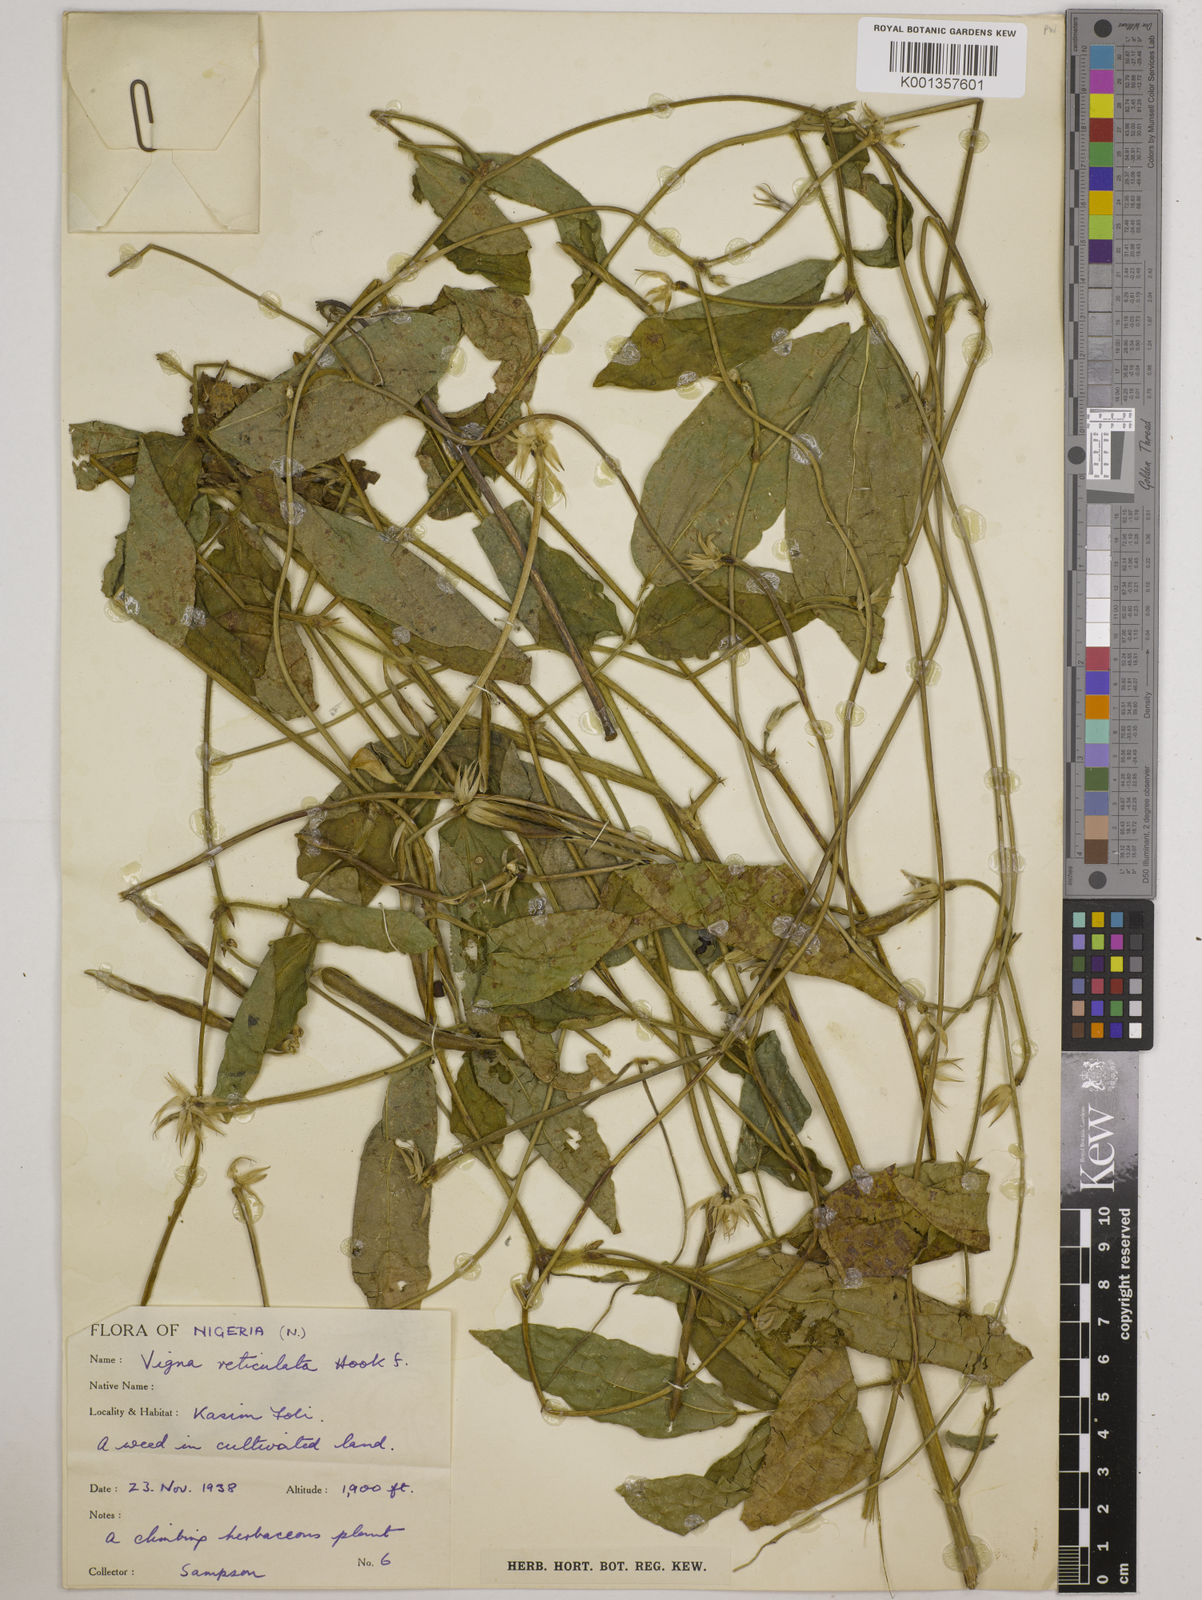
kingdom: Plantae
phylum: Tracheophyta
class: Magnoliopsida
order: Fabales
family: Fabaceae
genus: Vigna
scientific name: Vigna reticulata
